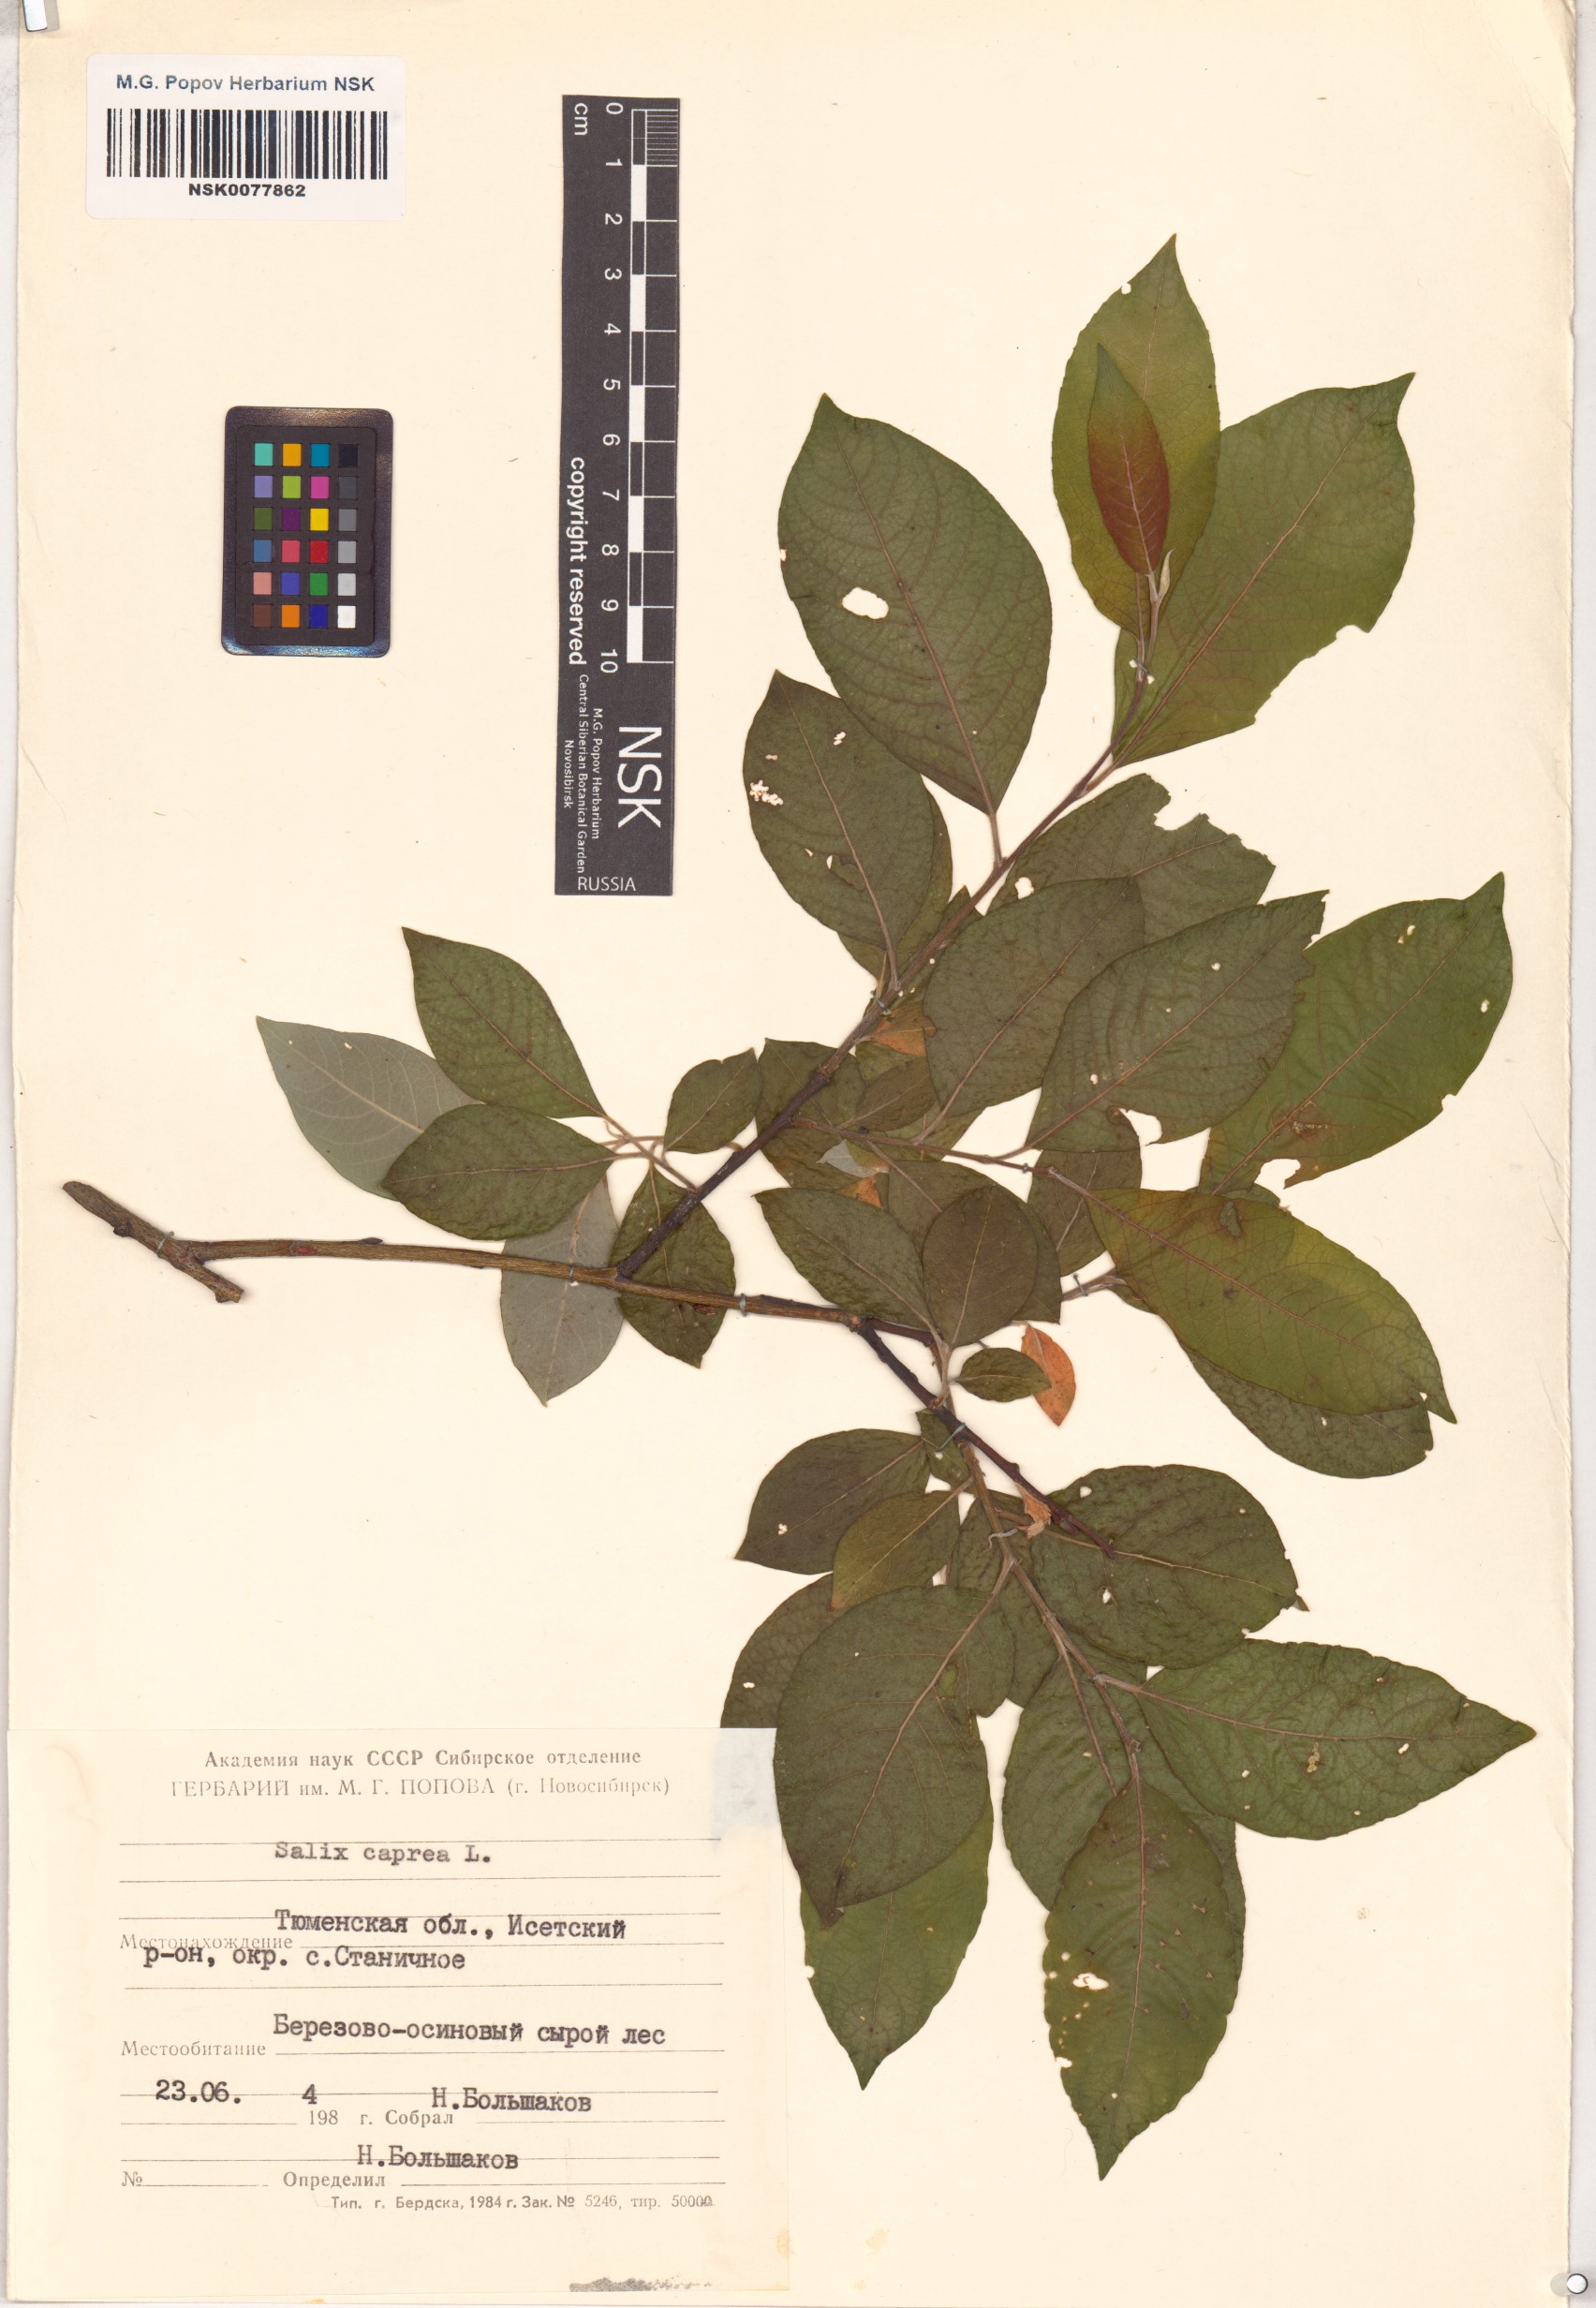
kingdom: Plantae
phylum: Tracheophyta
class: Magnoliopsida
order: Malpighiales
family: Salicaceae
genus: Salix
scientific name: Salix caprea
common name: Goat willow
